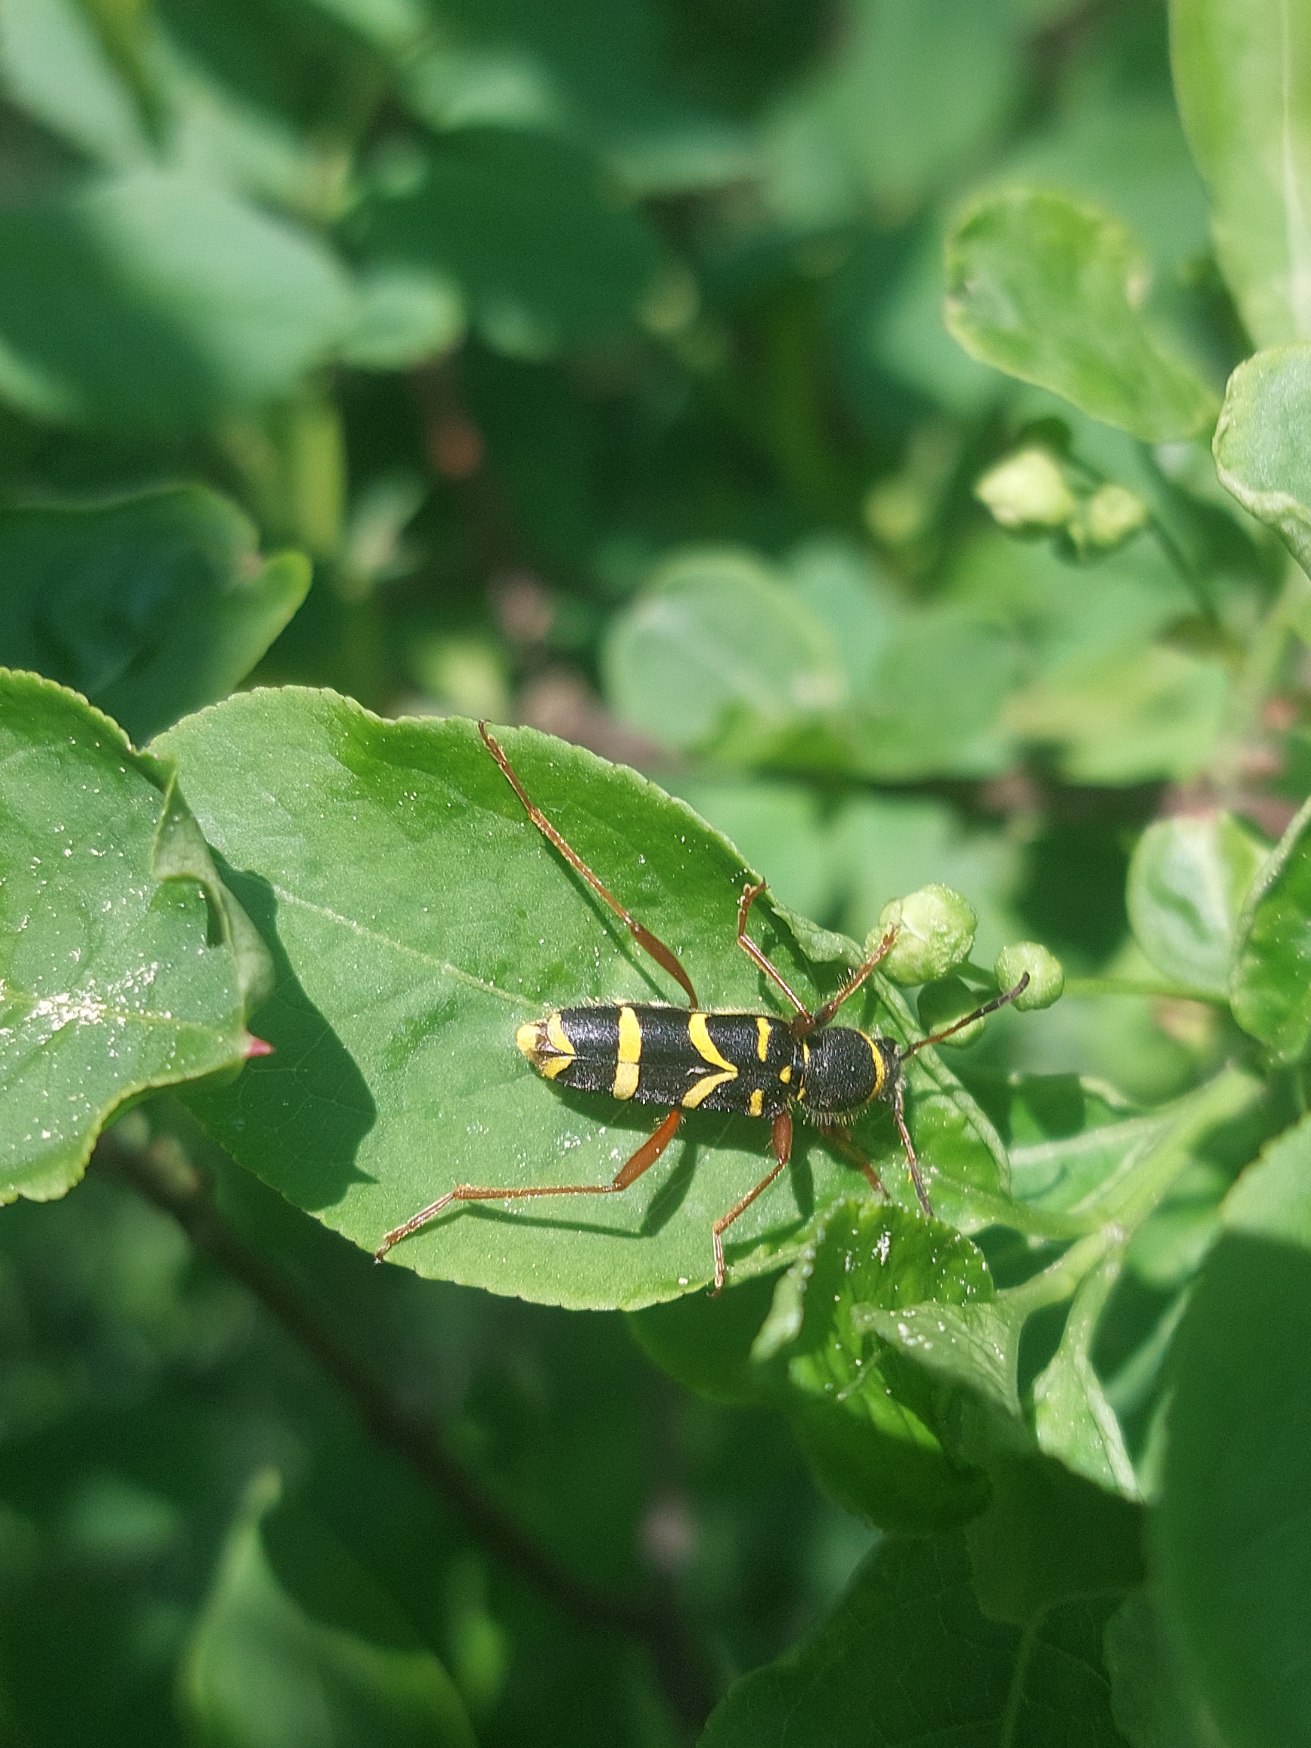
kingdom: Animalia
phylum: Arthropoda
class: Insecta
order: Coleoptera
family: Cerambycidae
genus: Clytus
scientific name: Clytus arietis
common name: Lille hvepsebuk
